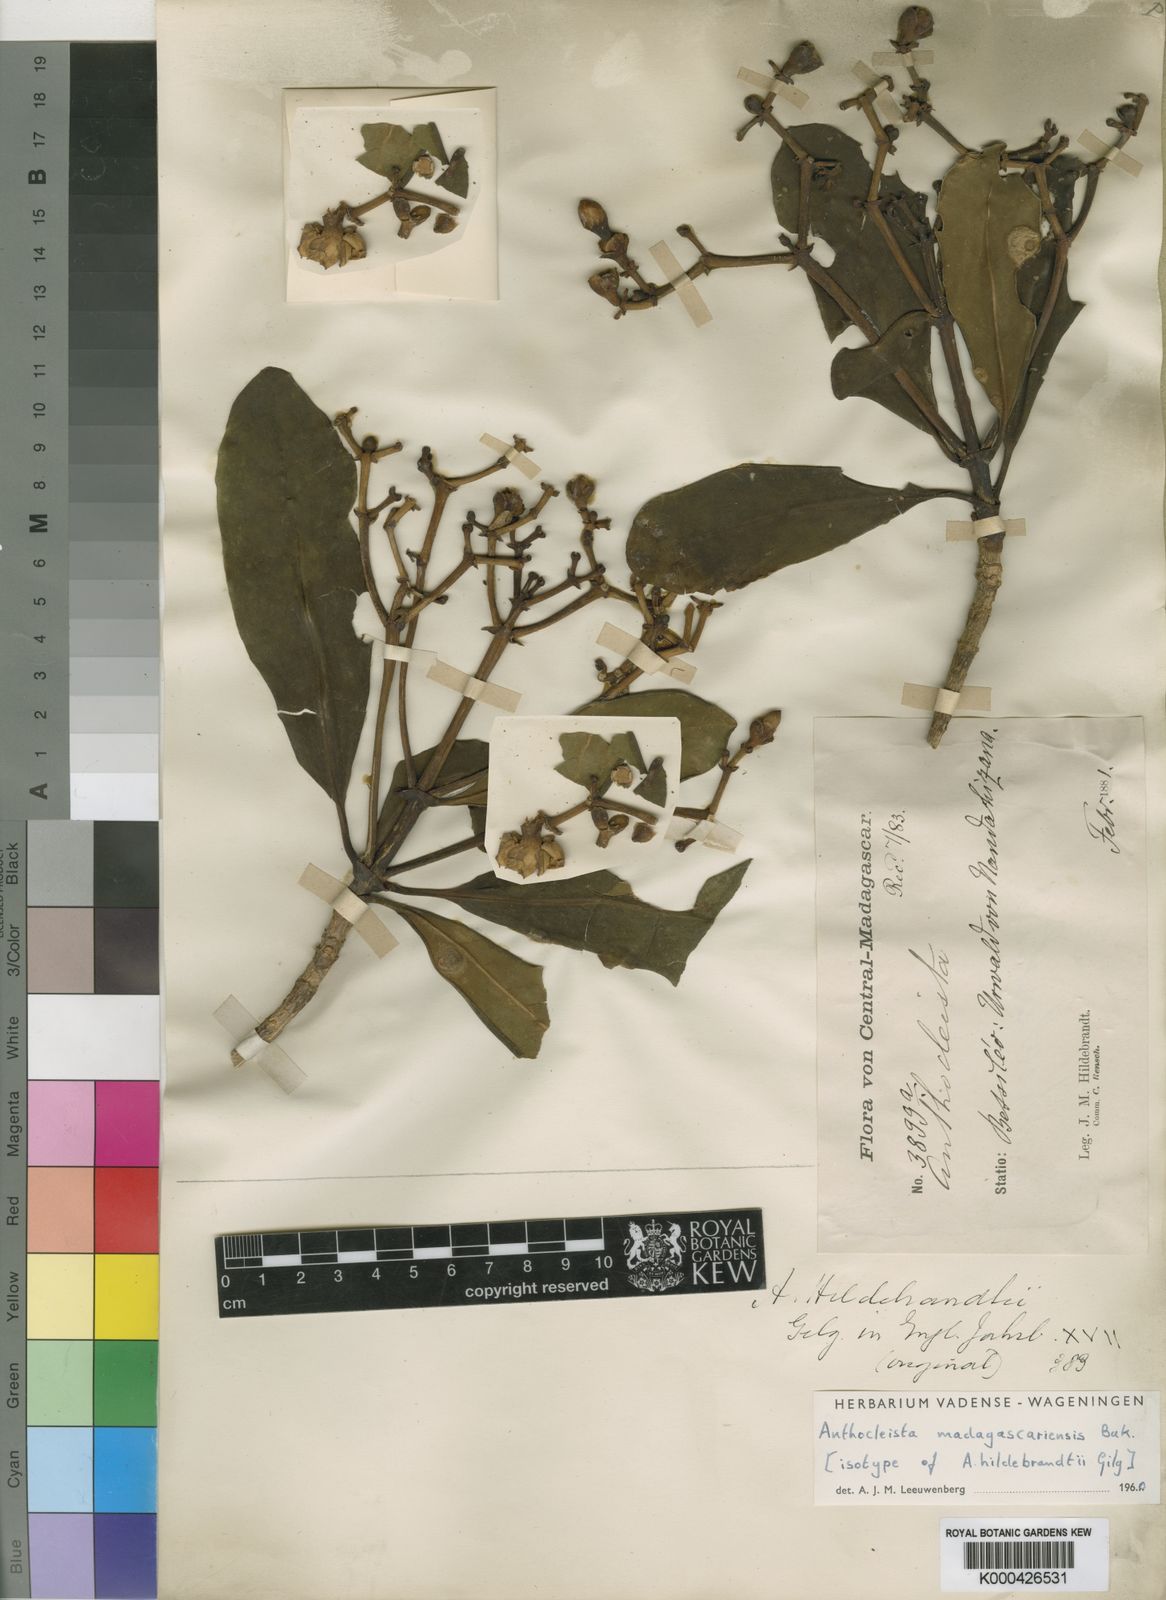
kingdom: Plantae
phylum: Tracheophyta
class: Magnoliopsida
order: Gentianales
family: Gentianaceae
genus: Anthocleista
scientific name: Anthocleista madagascariensis
